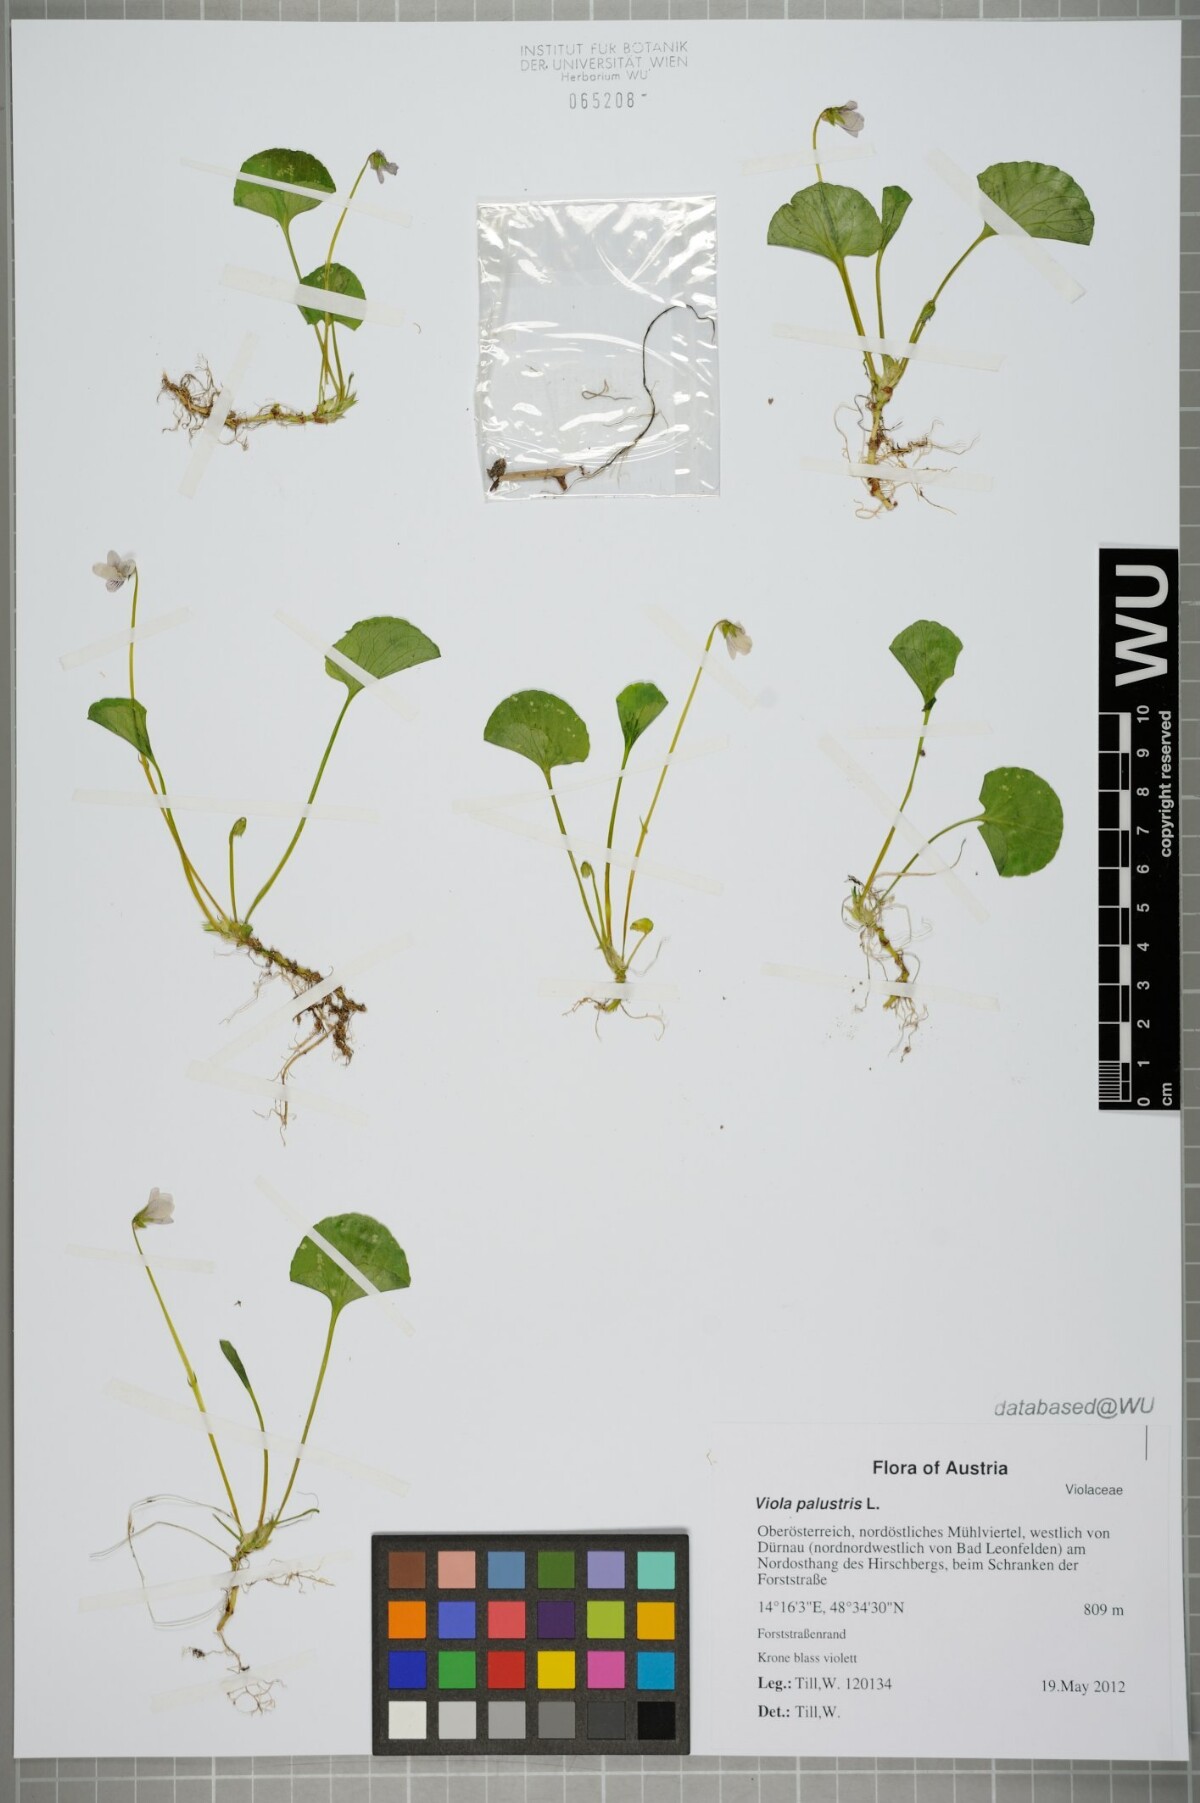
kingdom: Plantae
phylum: Tracheophyta
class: Magnoliopsida
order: Malpighiales
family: Violaceae
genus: Viola
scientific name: Viola palustris
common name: Marsh violet
